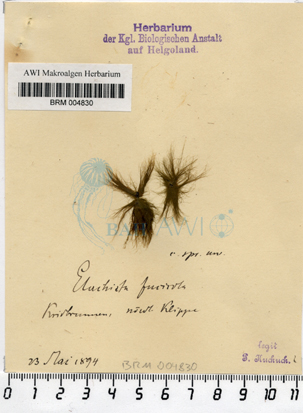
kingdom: Chromista
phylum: Ochrophyta
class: Phaeophyceae
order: Ectocarpales
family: Chordariaceae
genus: Elachista
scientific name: Elachista fucicola
